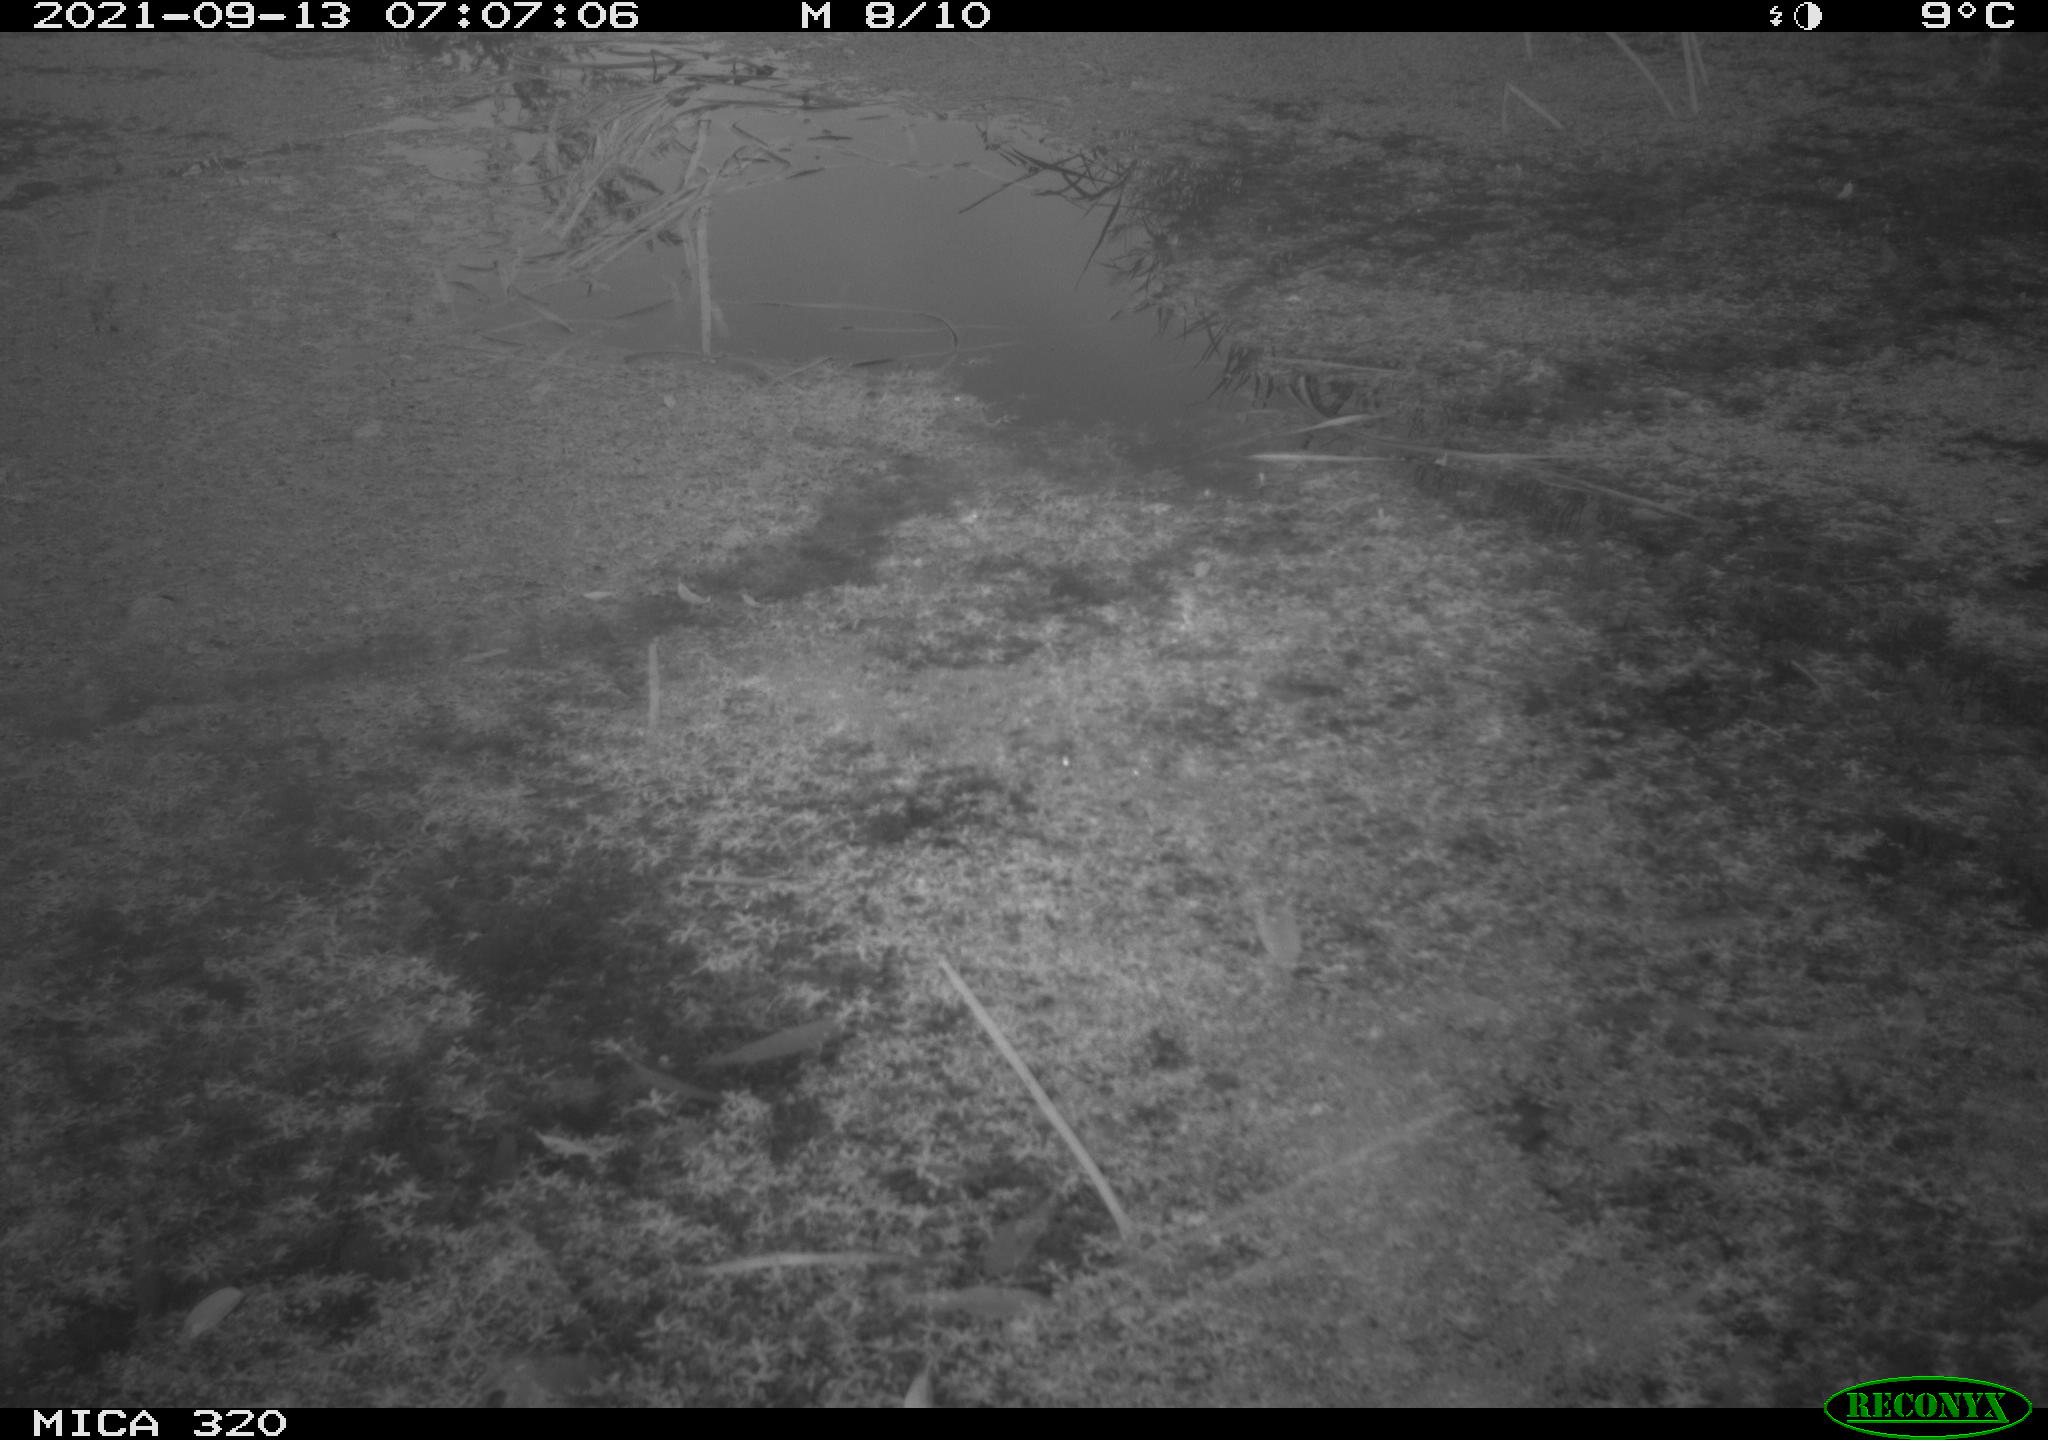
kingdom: Animalia
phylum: Chordata
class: Aves
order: Gruiformes
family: Rallidae
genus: Gallinula
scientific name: Gallinula chloropus
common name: Common moorhen
